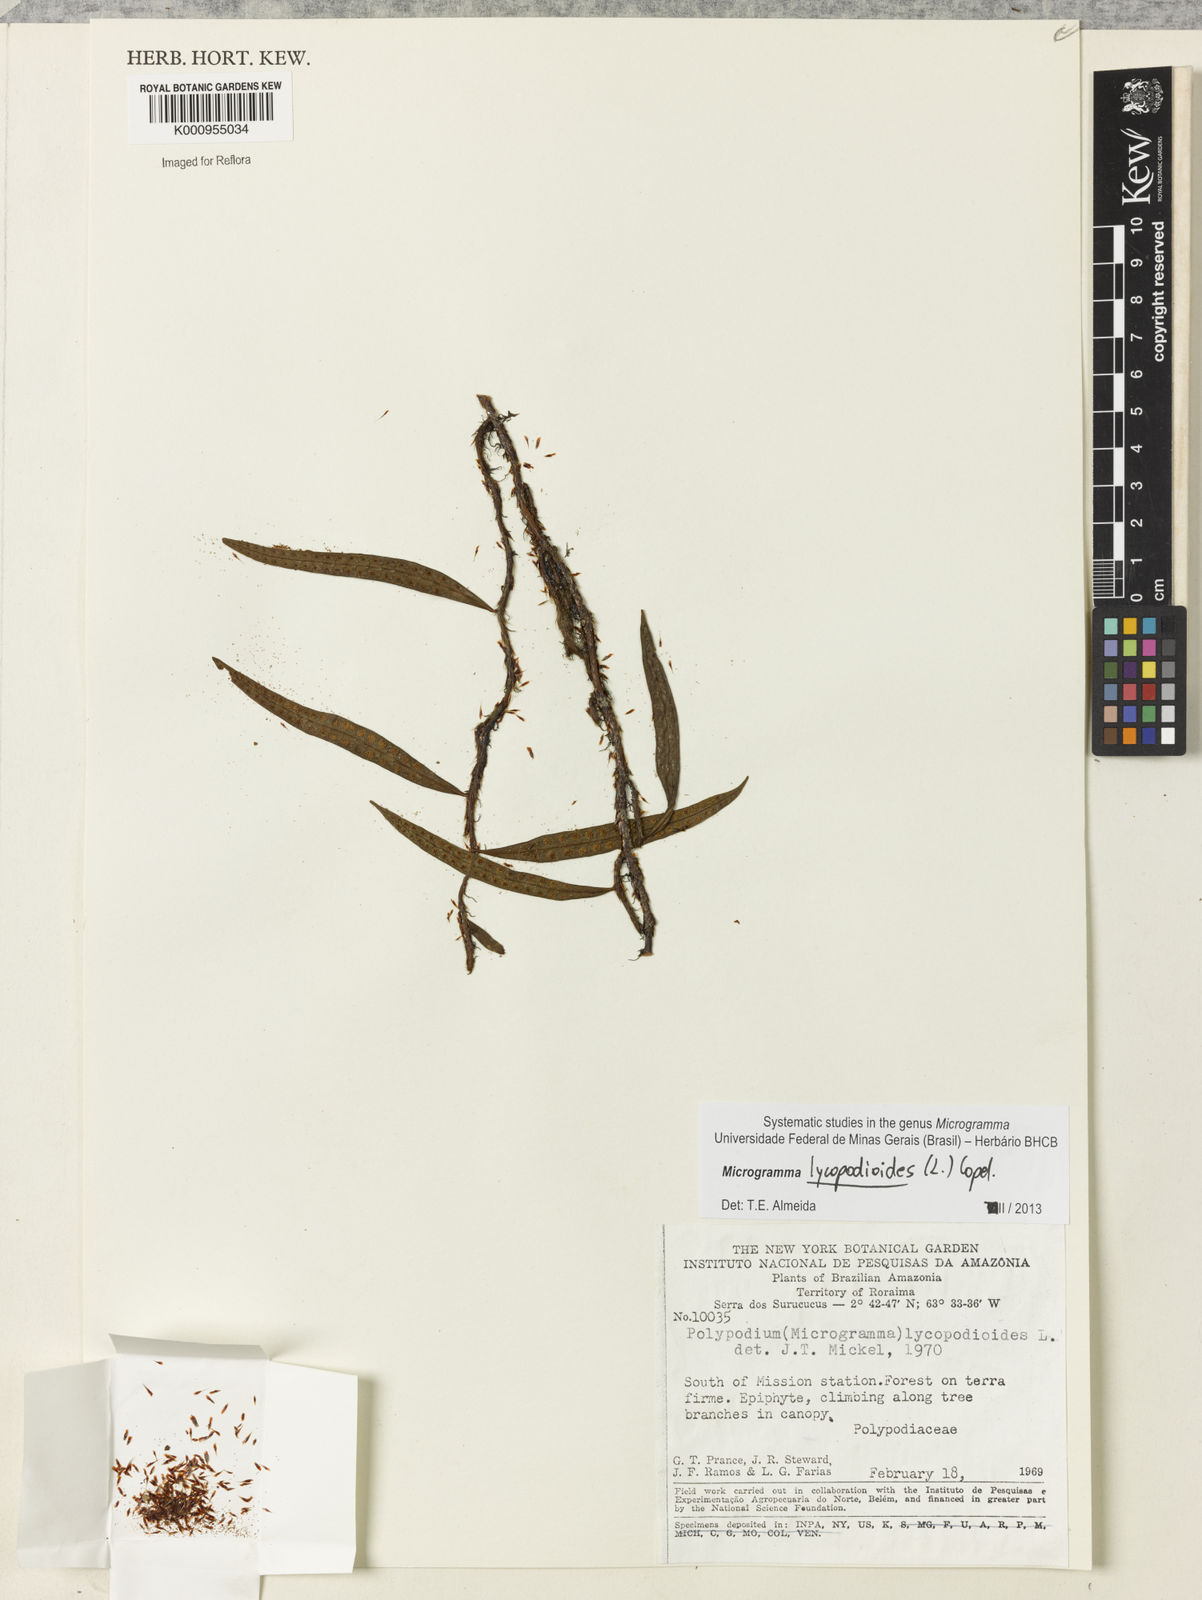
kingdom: Plantae
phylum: Tracheophyta
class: Polypodiopsida
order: Polypodiales
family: Polypodiaceae
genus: Microgramma
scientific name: Microgramma lycopodioides
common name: Bastard catclaw
